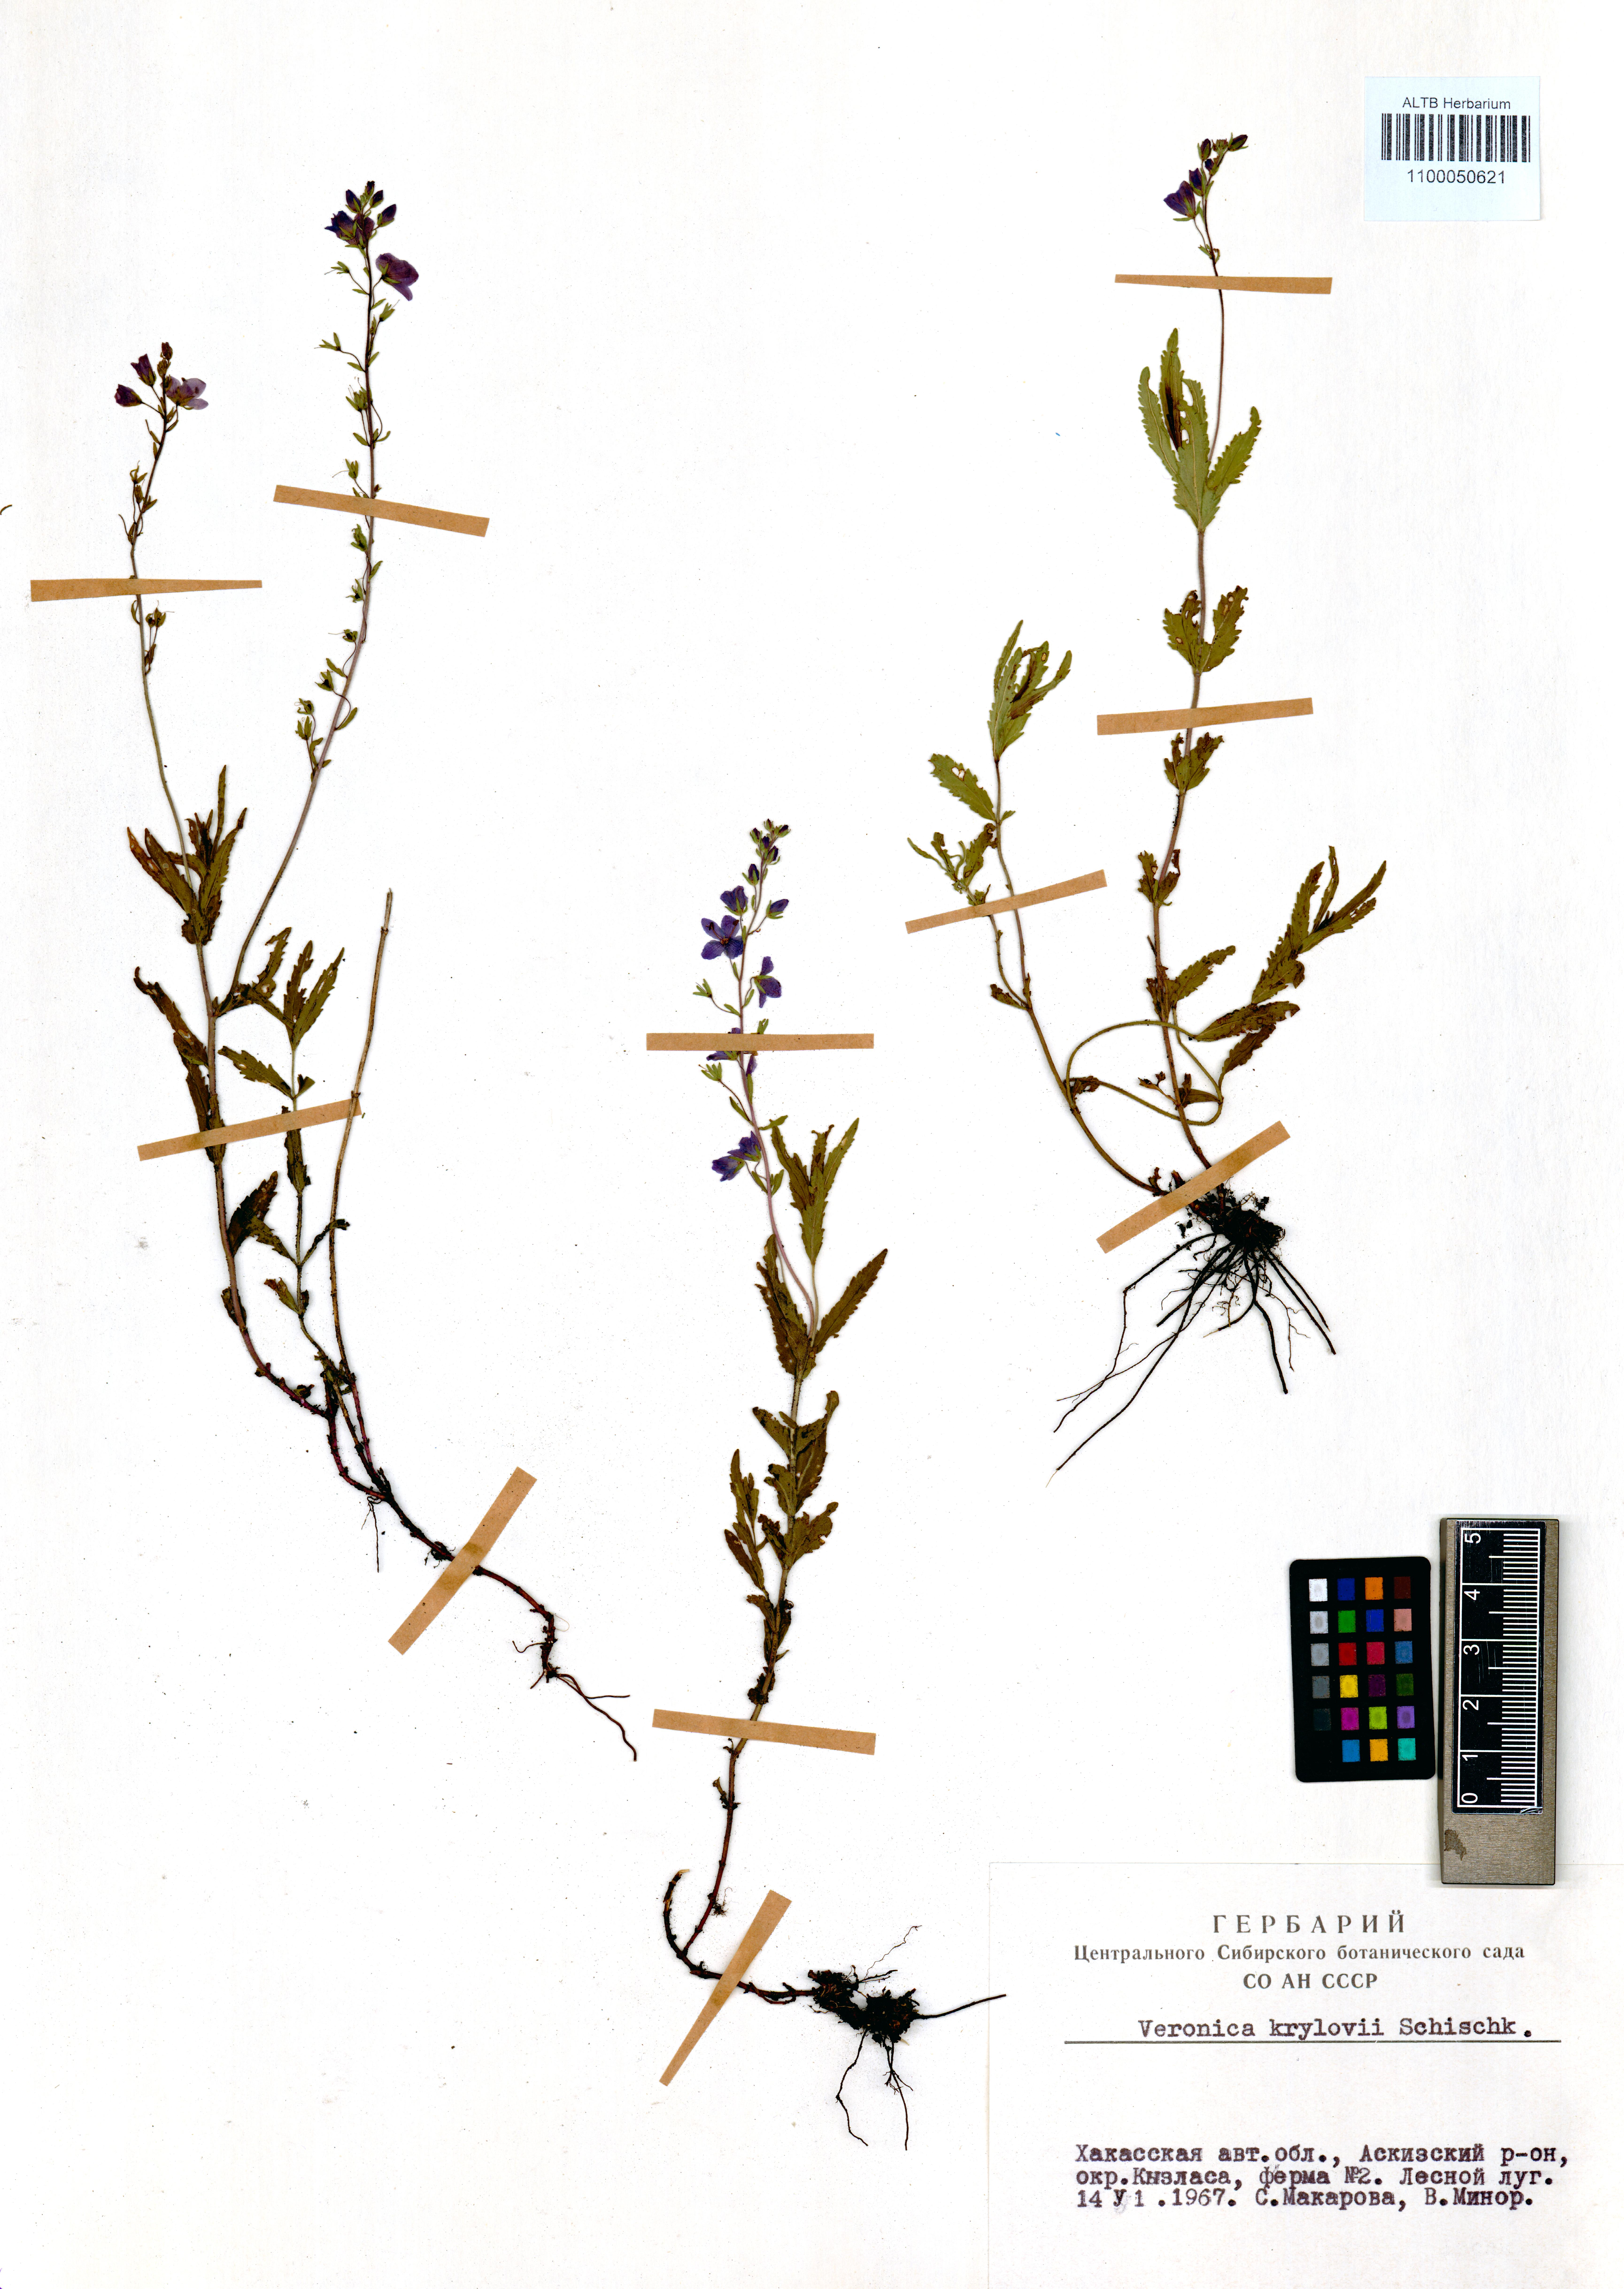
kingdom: Plantae
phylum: Tracheophyta
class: Magnoliopsida
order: Lamiales
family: Plantaginaceae
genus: Veronica
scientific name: Veronica krylovii
